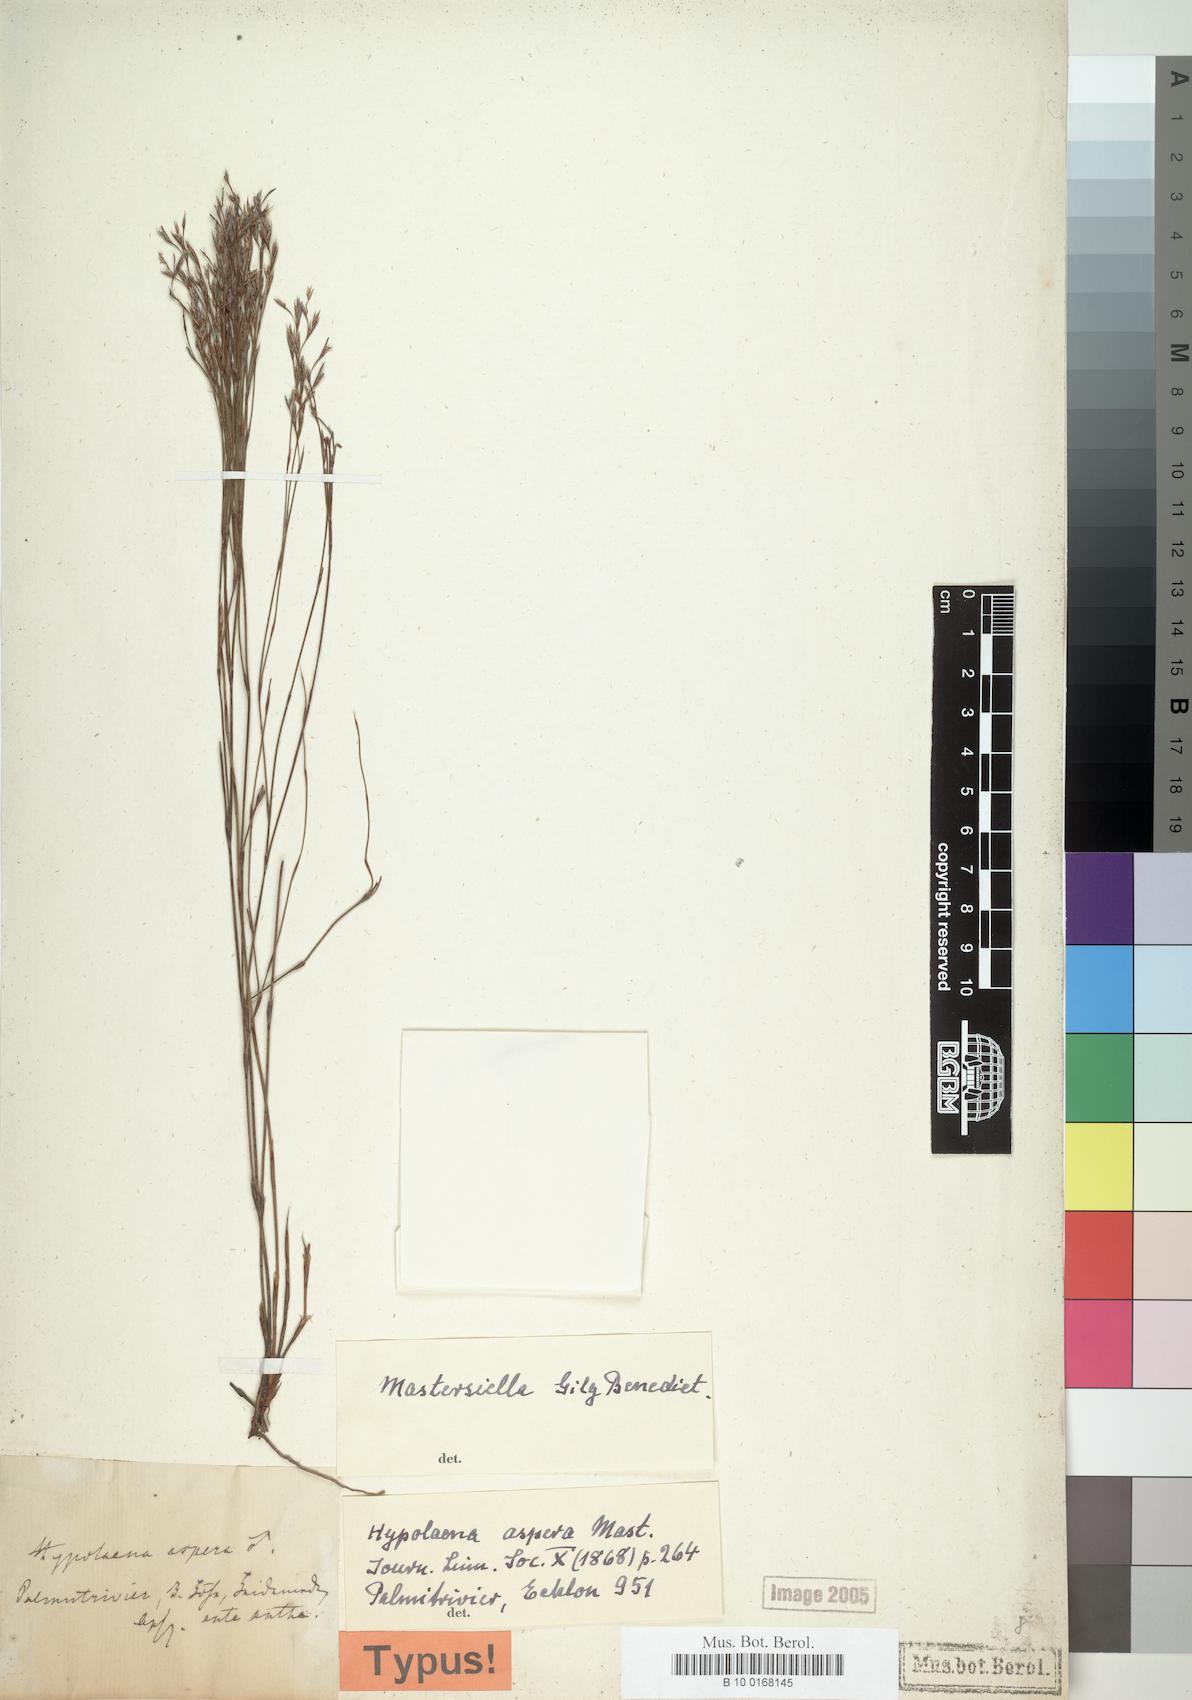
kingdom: Plantae
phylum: Tracheophyta
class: Liliopsida
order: Poales
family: Restionaceae
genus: Mastersiella
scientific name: Mastersiella
